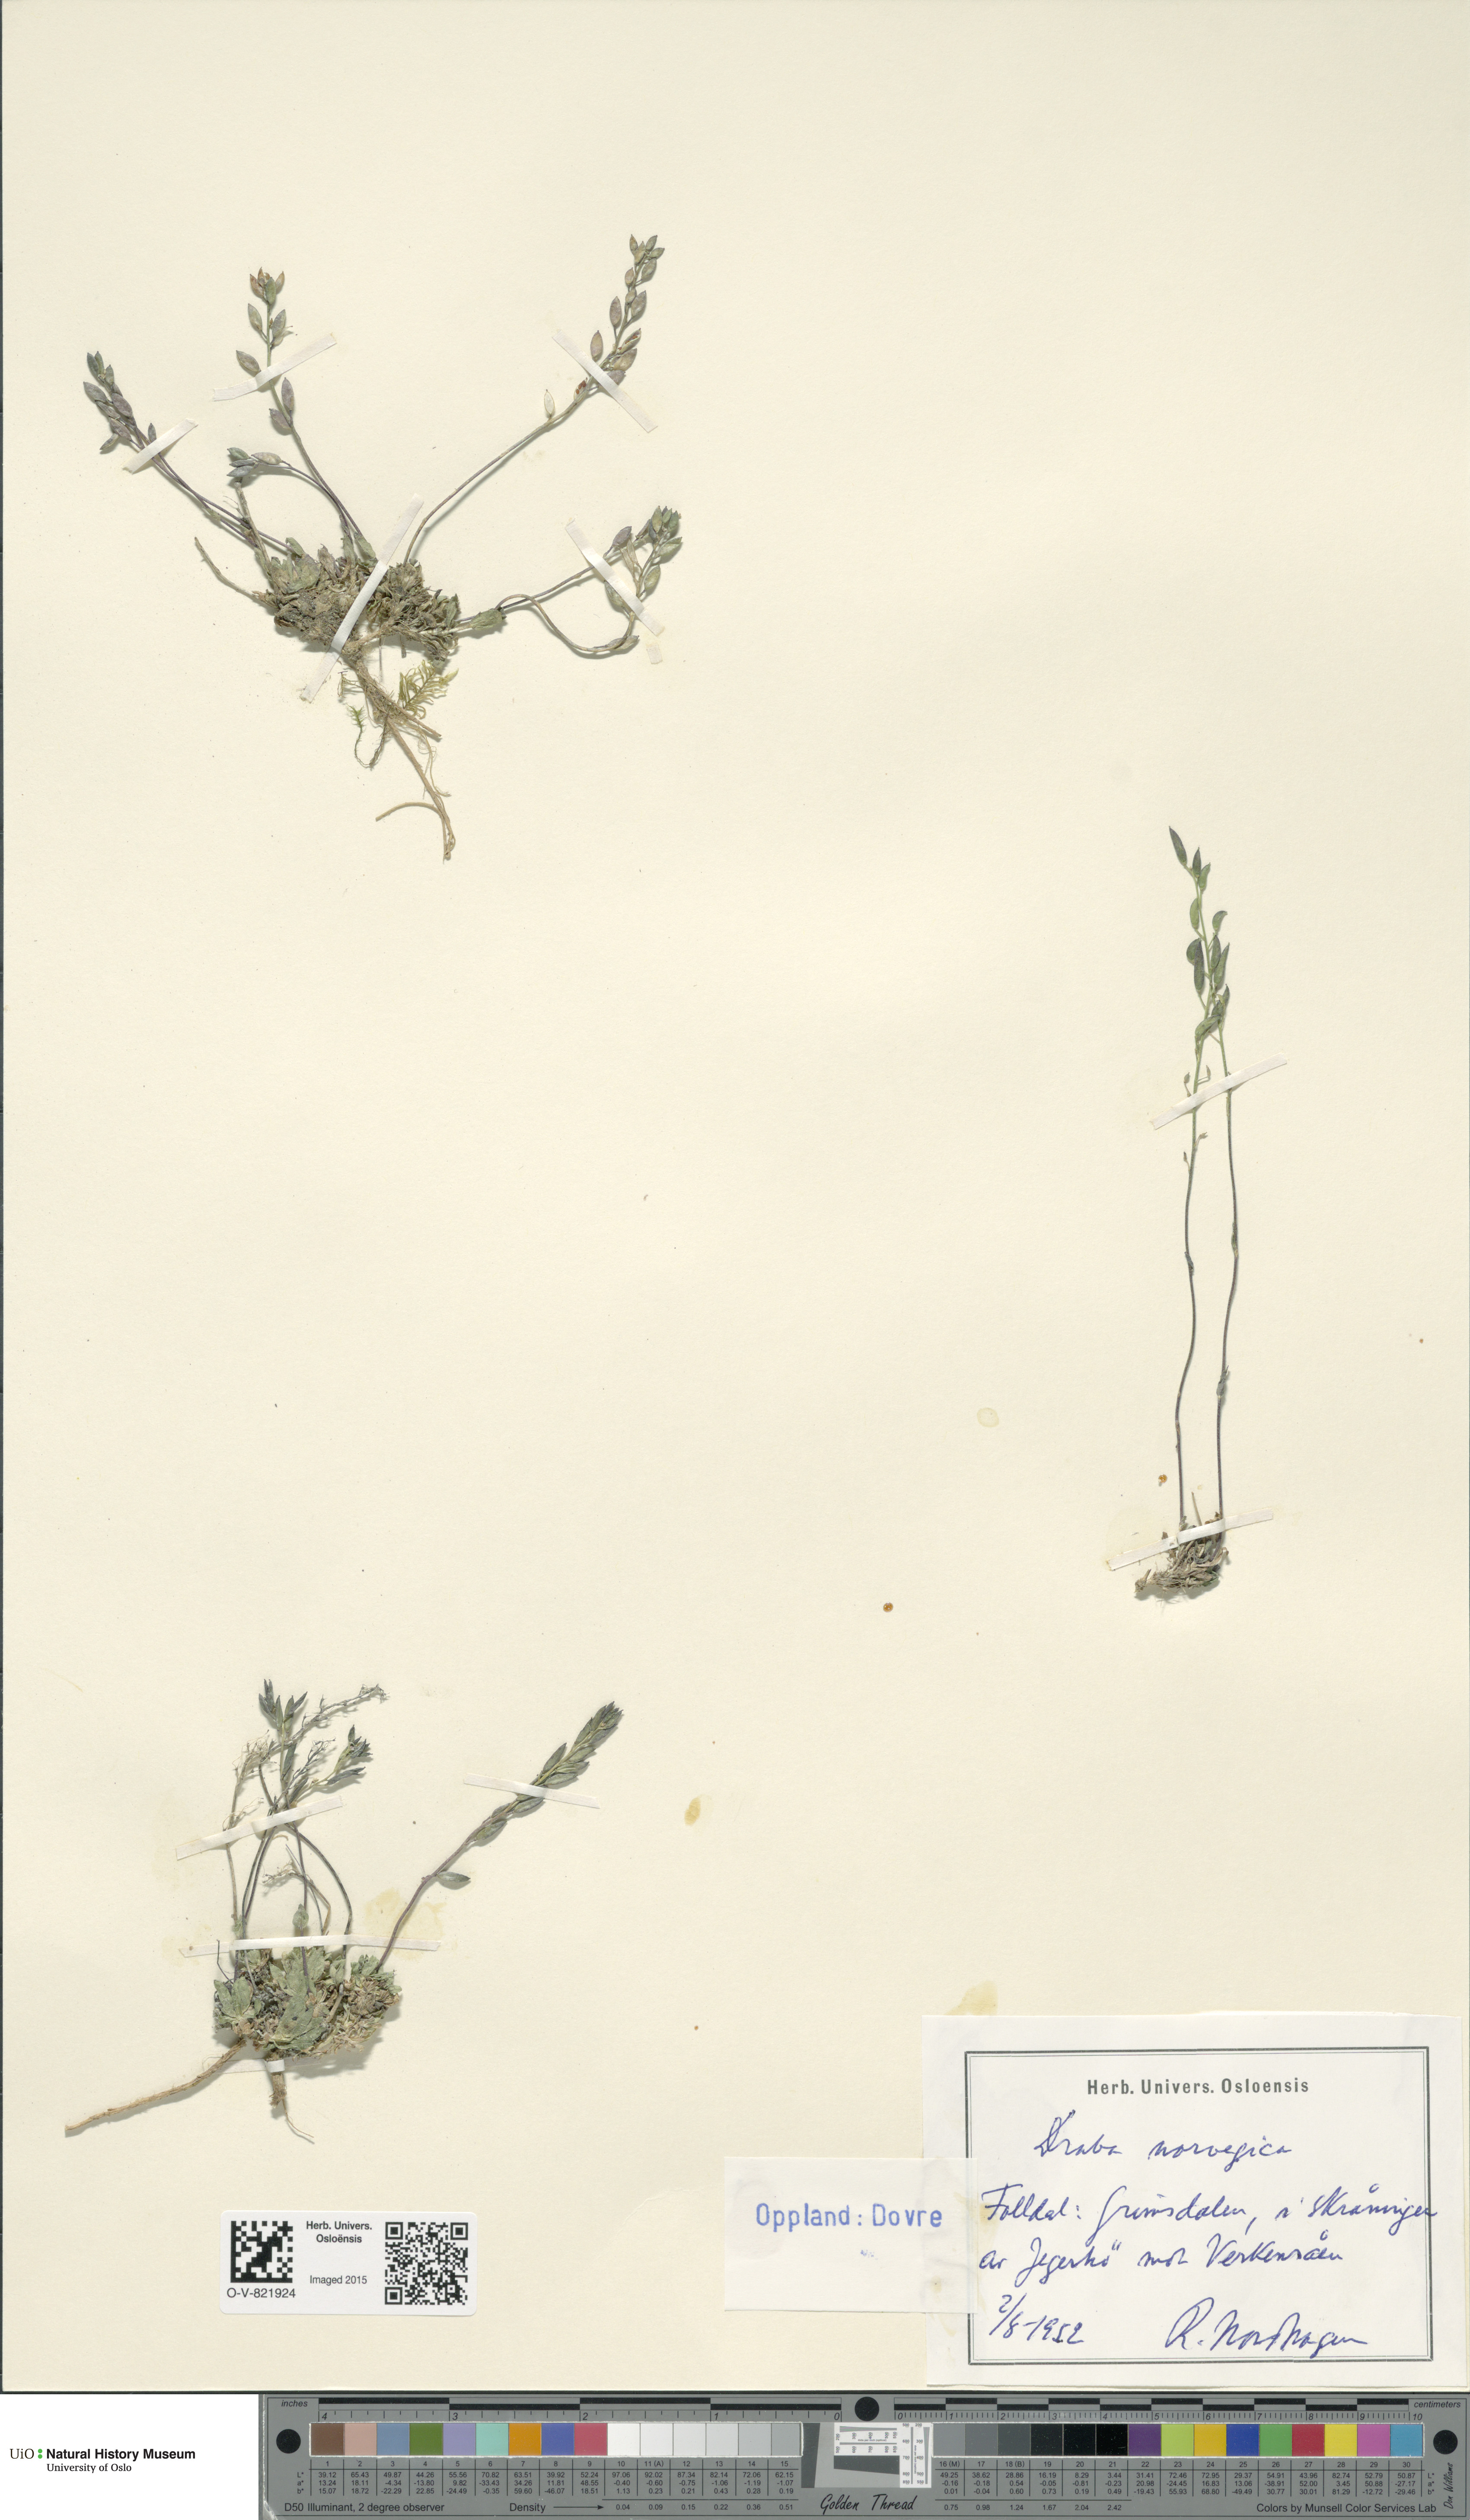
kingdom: Plantae
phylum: Tracheophyta
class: Magnoliopsida
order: Brassicales
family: Brassicaceae
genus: Draba
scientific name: Draba norvegica
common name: Rock whitlowgrass
